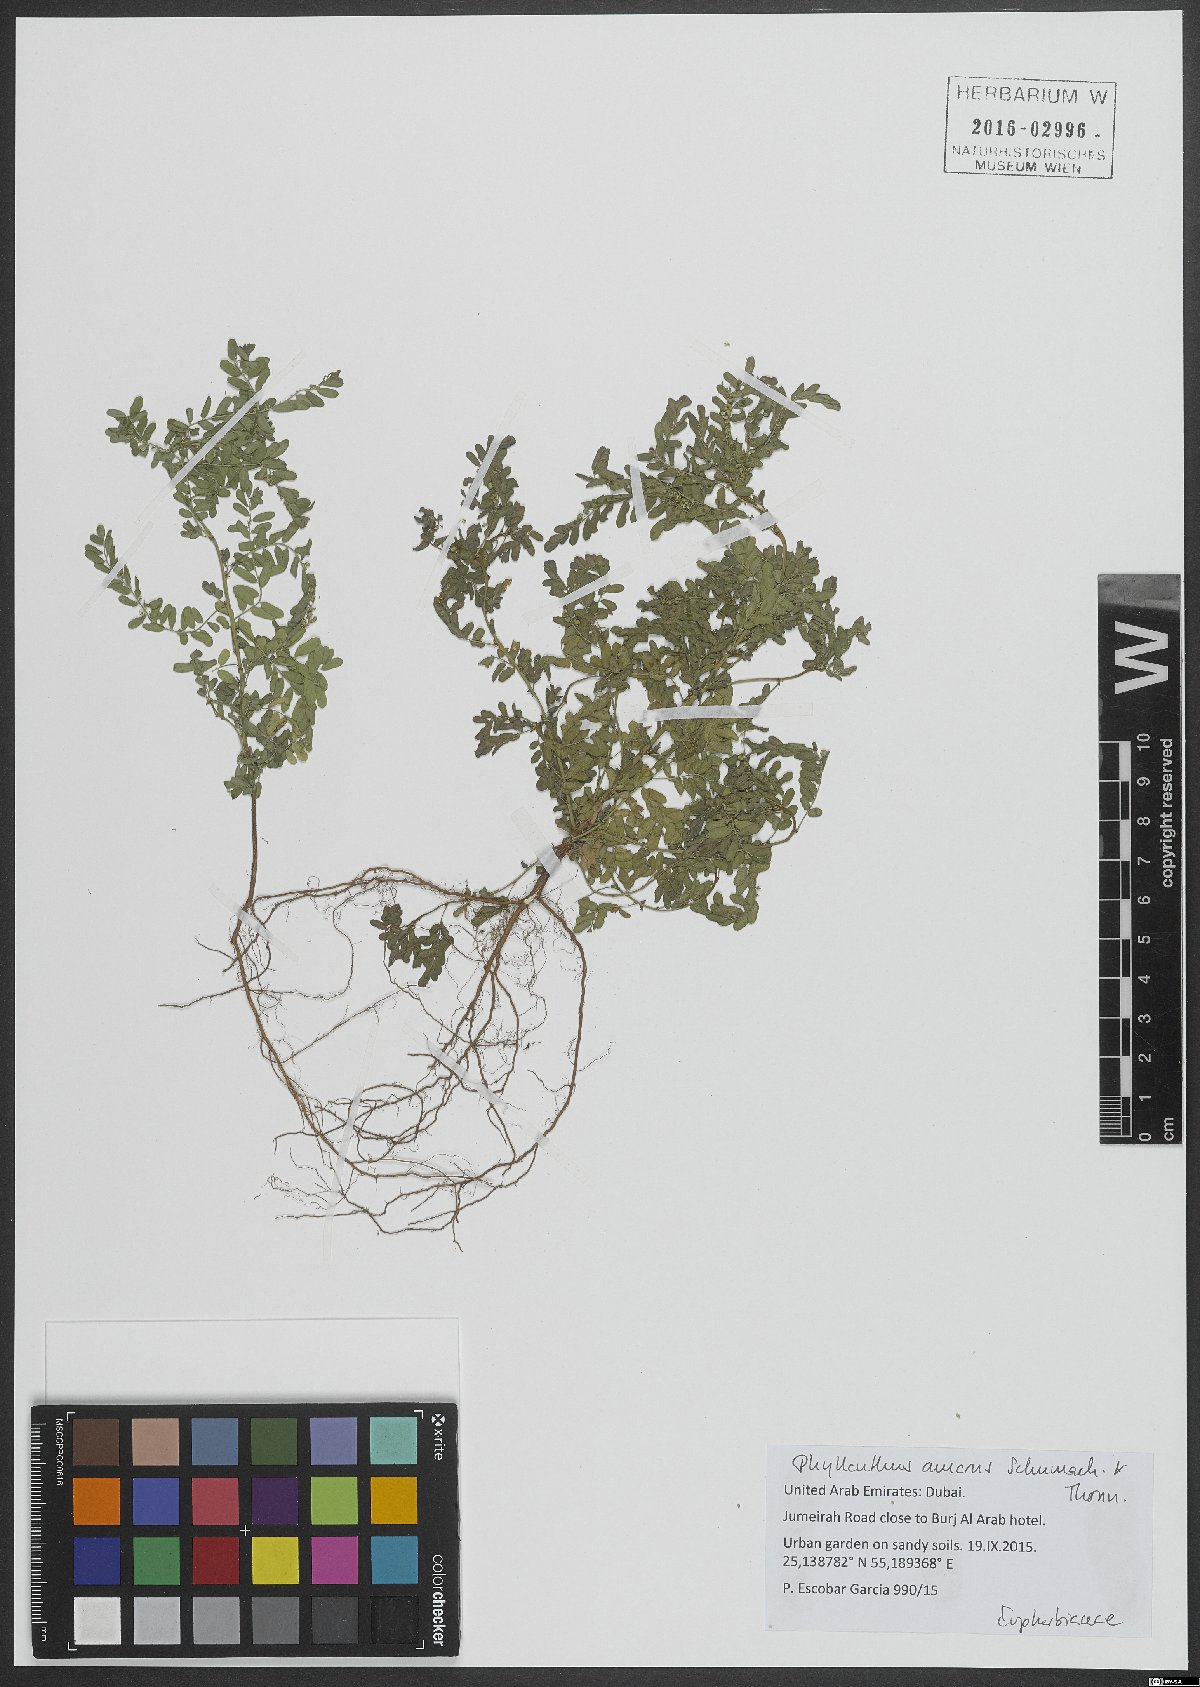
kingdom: Plantae
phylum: Tracheophyta
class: Magnoliopsida
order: Malpighiales
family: Phyllanthaceae
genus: Phyllanthus
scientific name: Phyllanthus amarus
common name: Carry me seed
